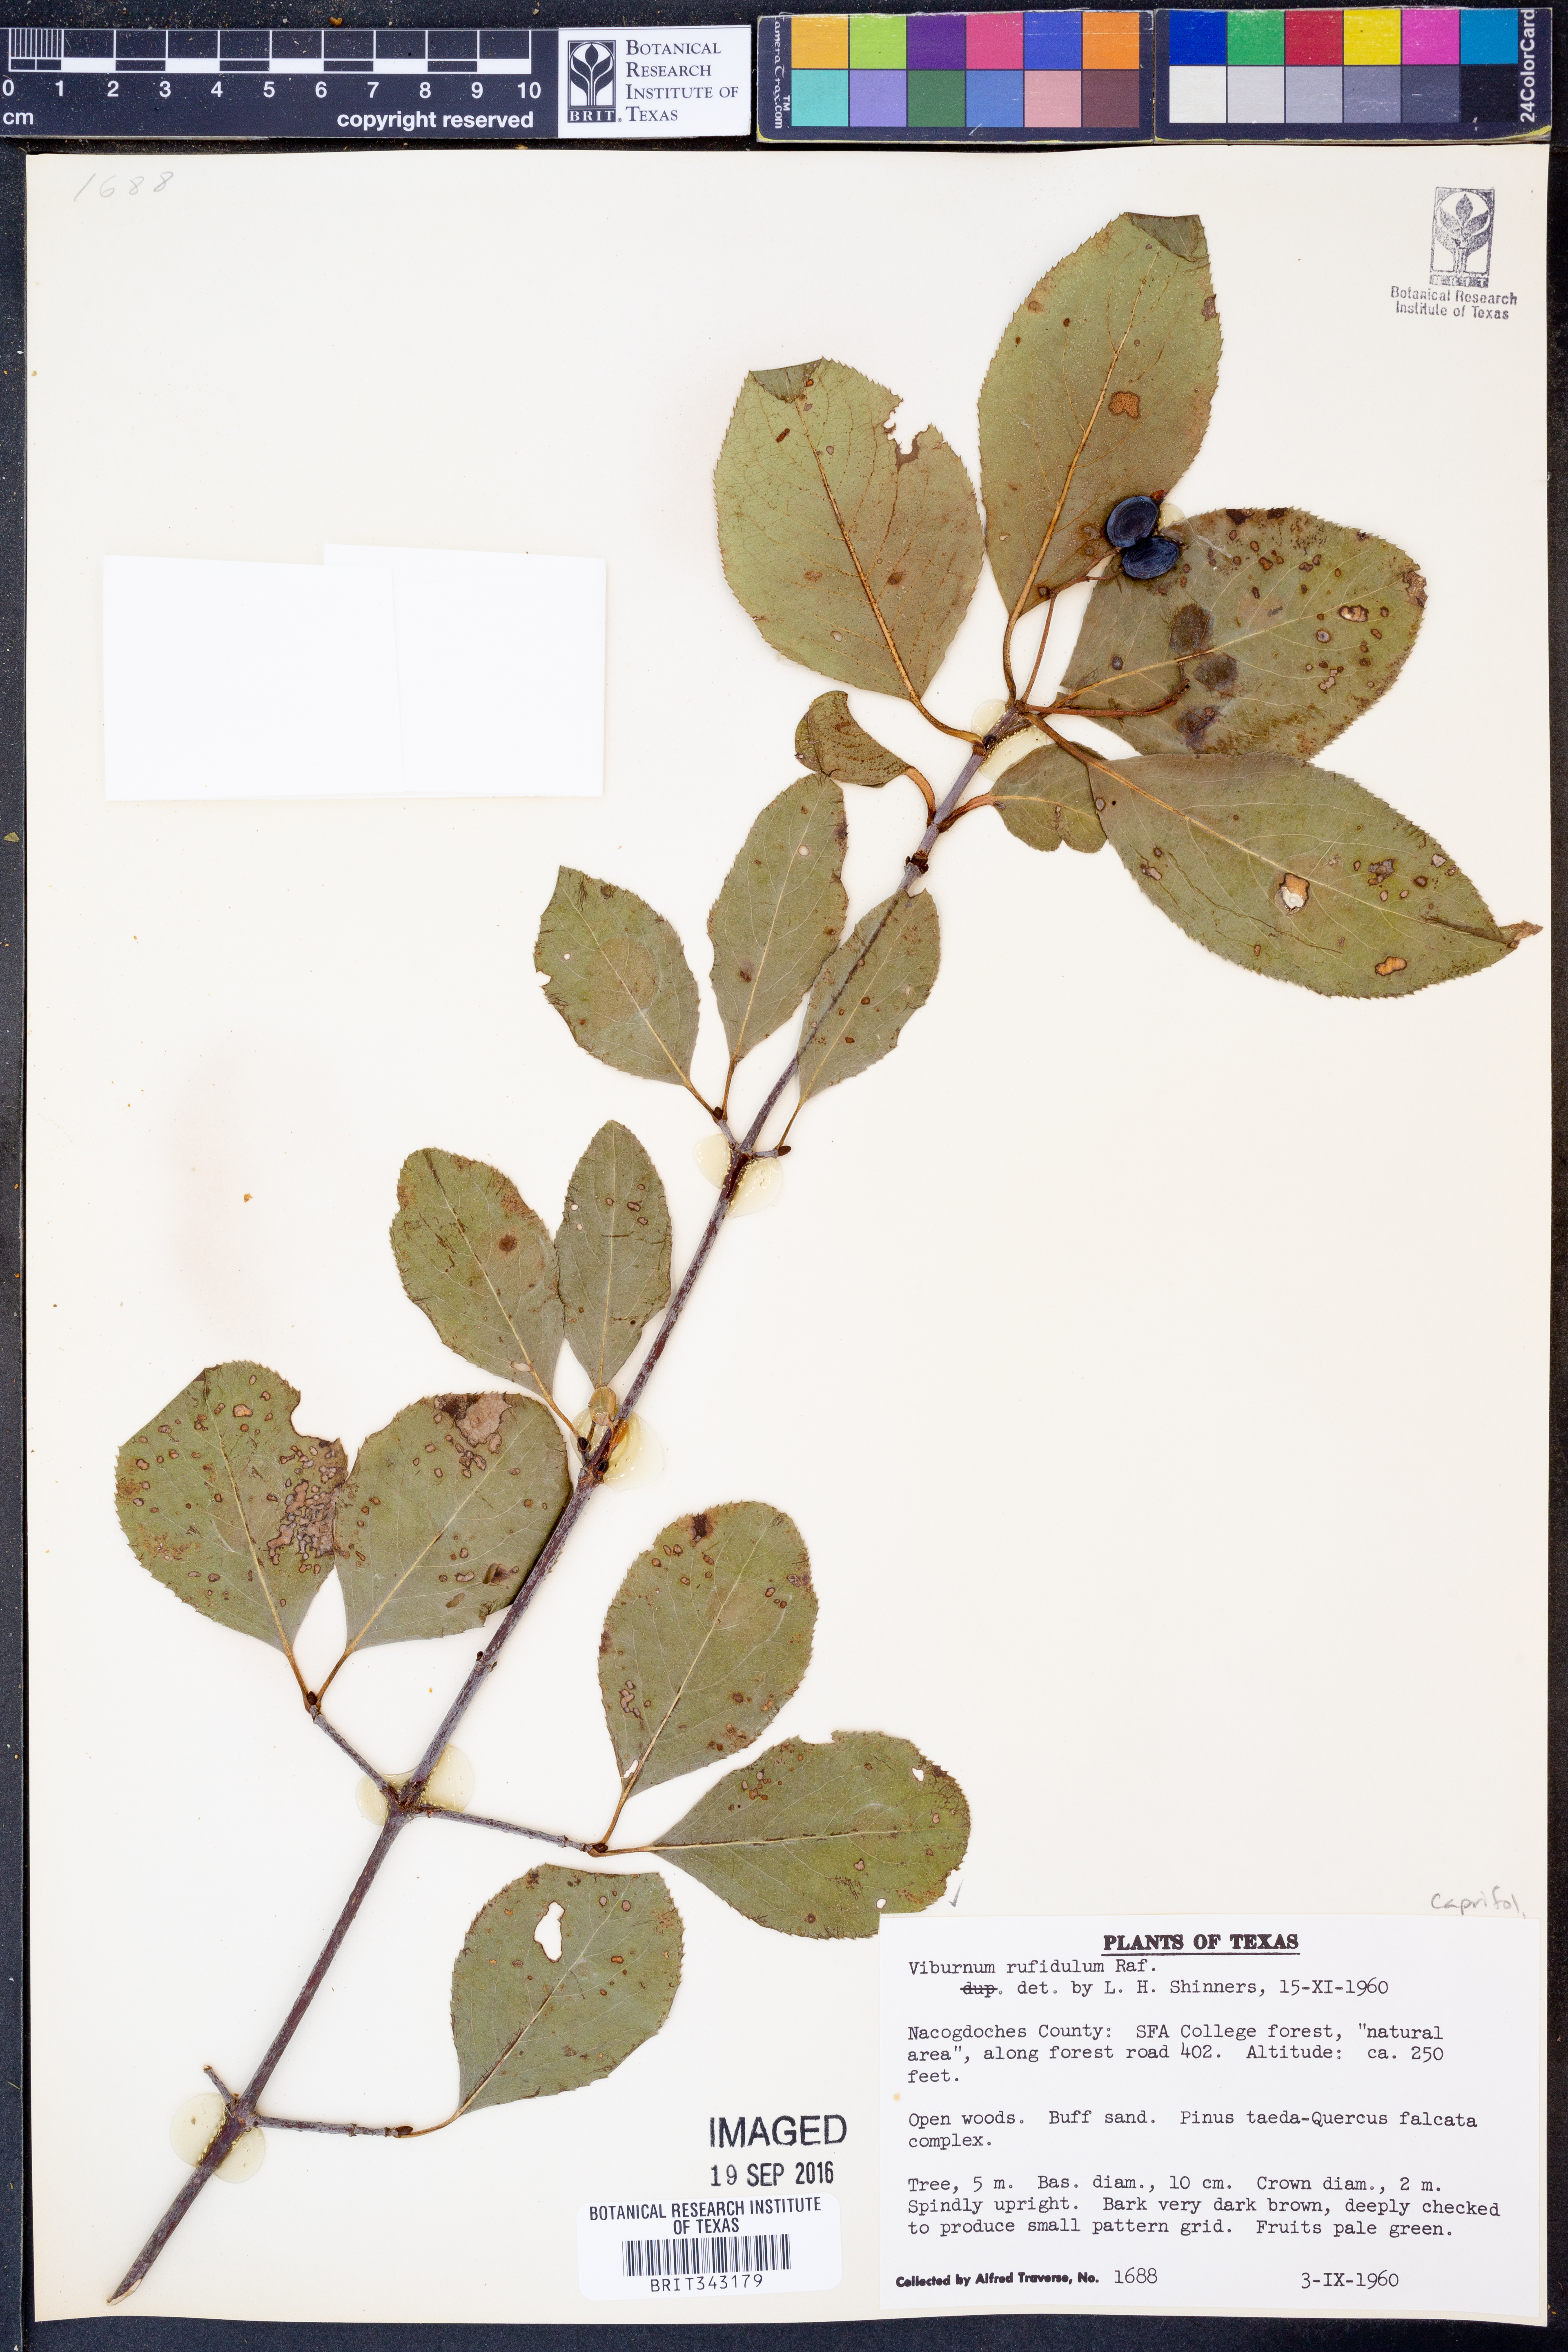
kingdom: Plantae
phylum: Tracheophyta
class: Magnoliopsida
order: Dipsacales
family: Viburnaceae
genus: Viburnum
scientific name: Viburnum rufidulum
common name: Blue haw
